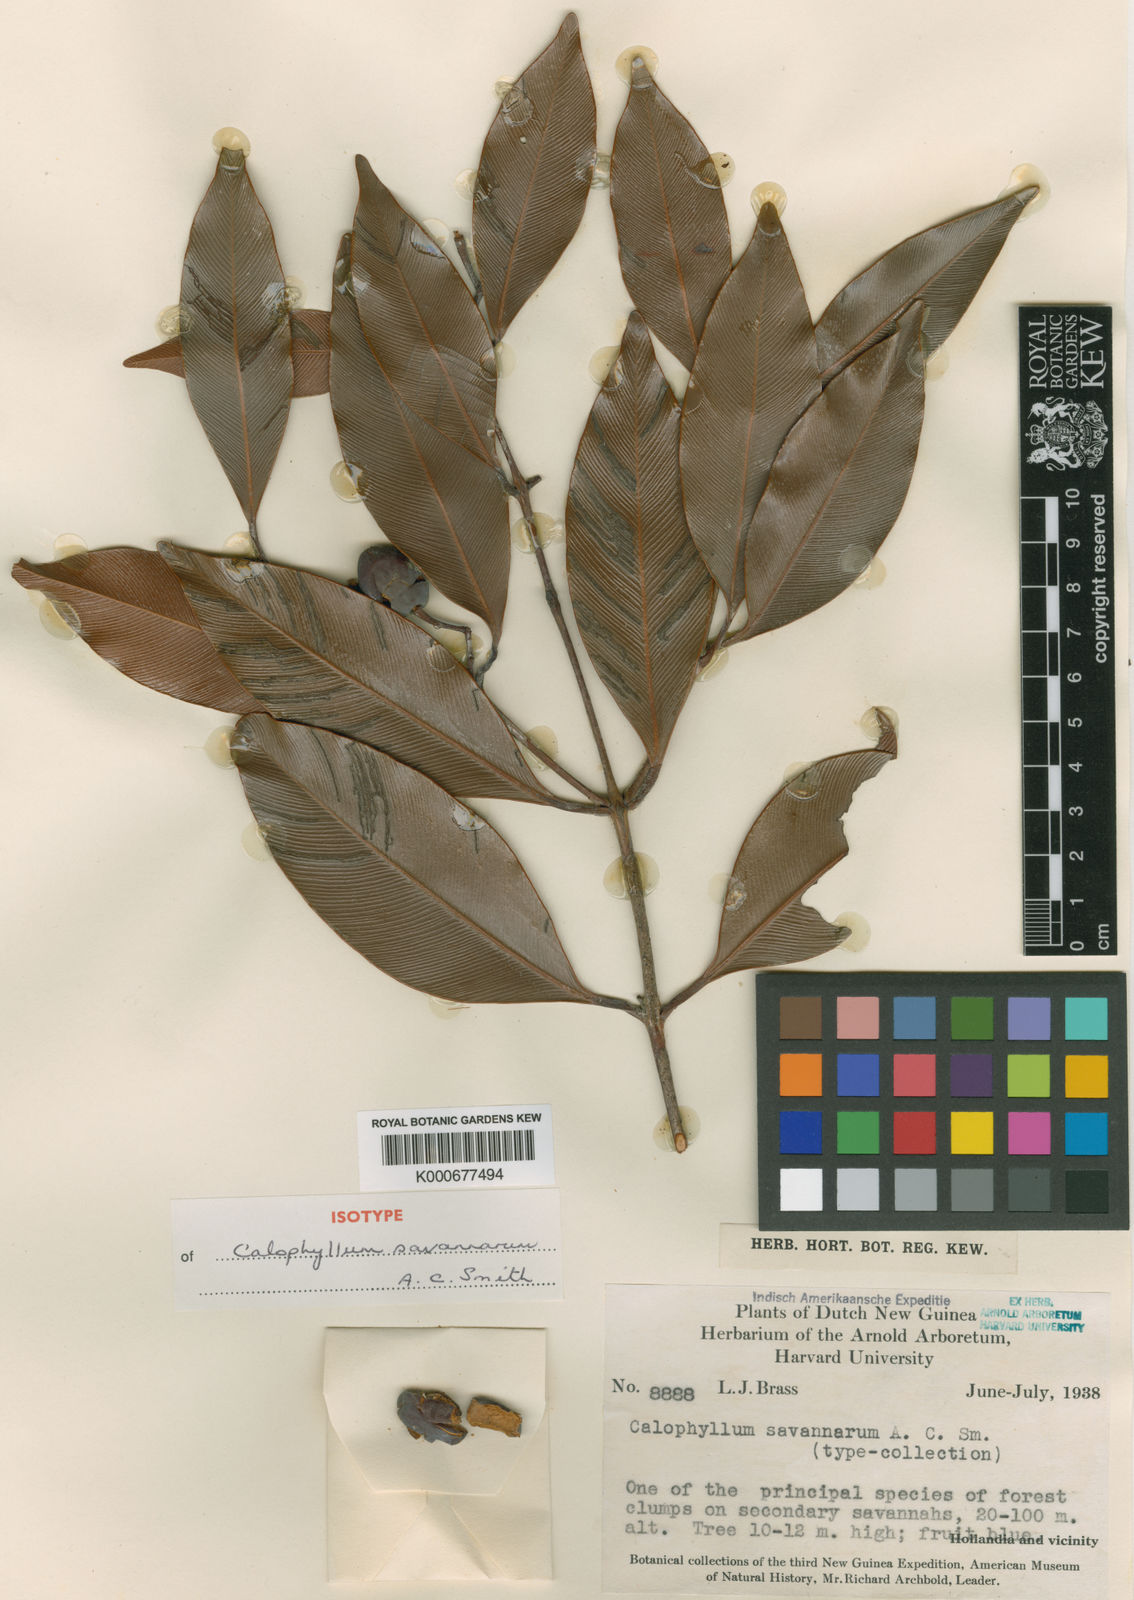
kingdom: Plantae
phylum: Tracheophyta
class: Magnoliopsida
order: Malpighiales
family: Calophyllaceae
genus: Calophyllum
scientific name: Calophyllum savannarum
